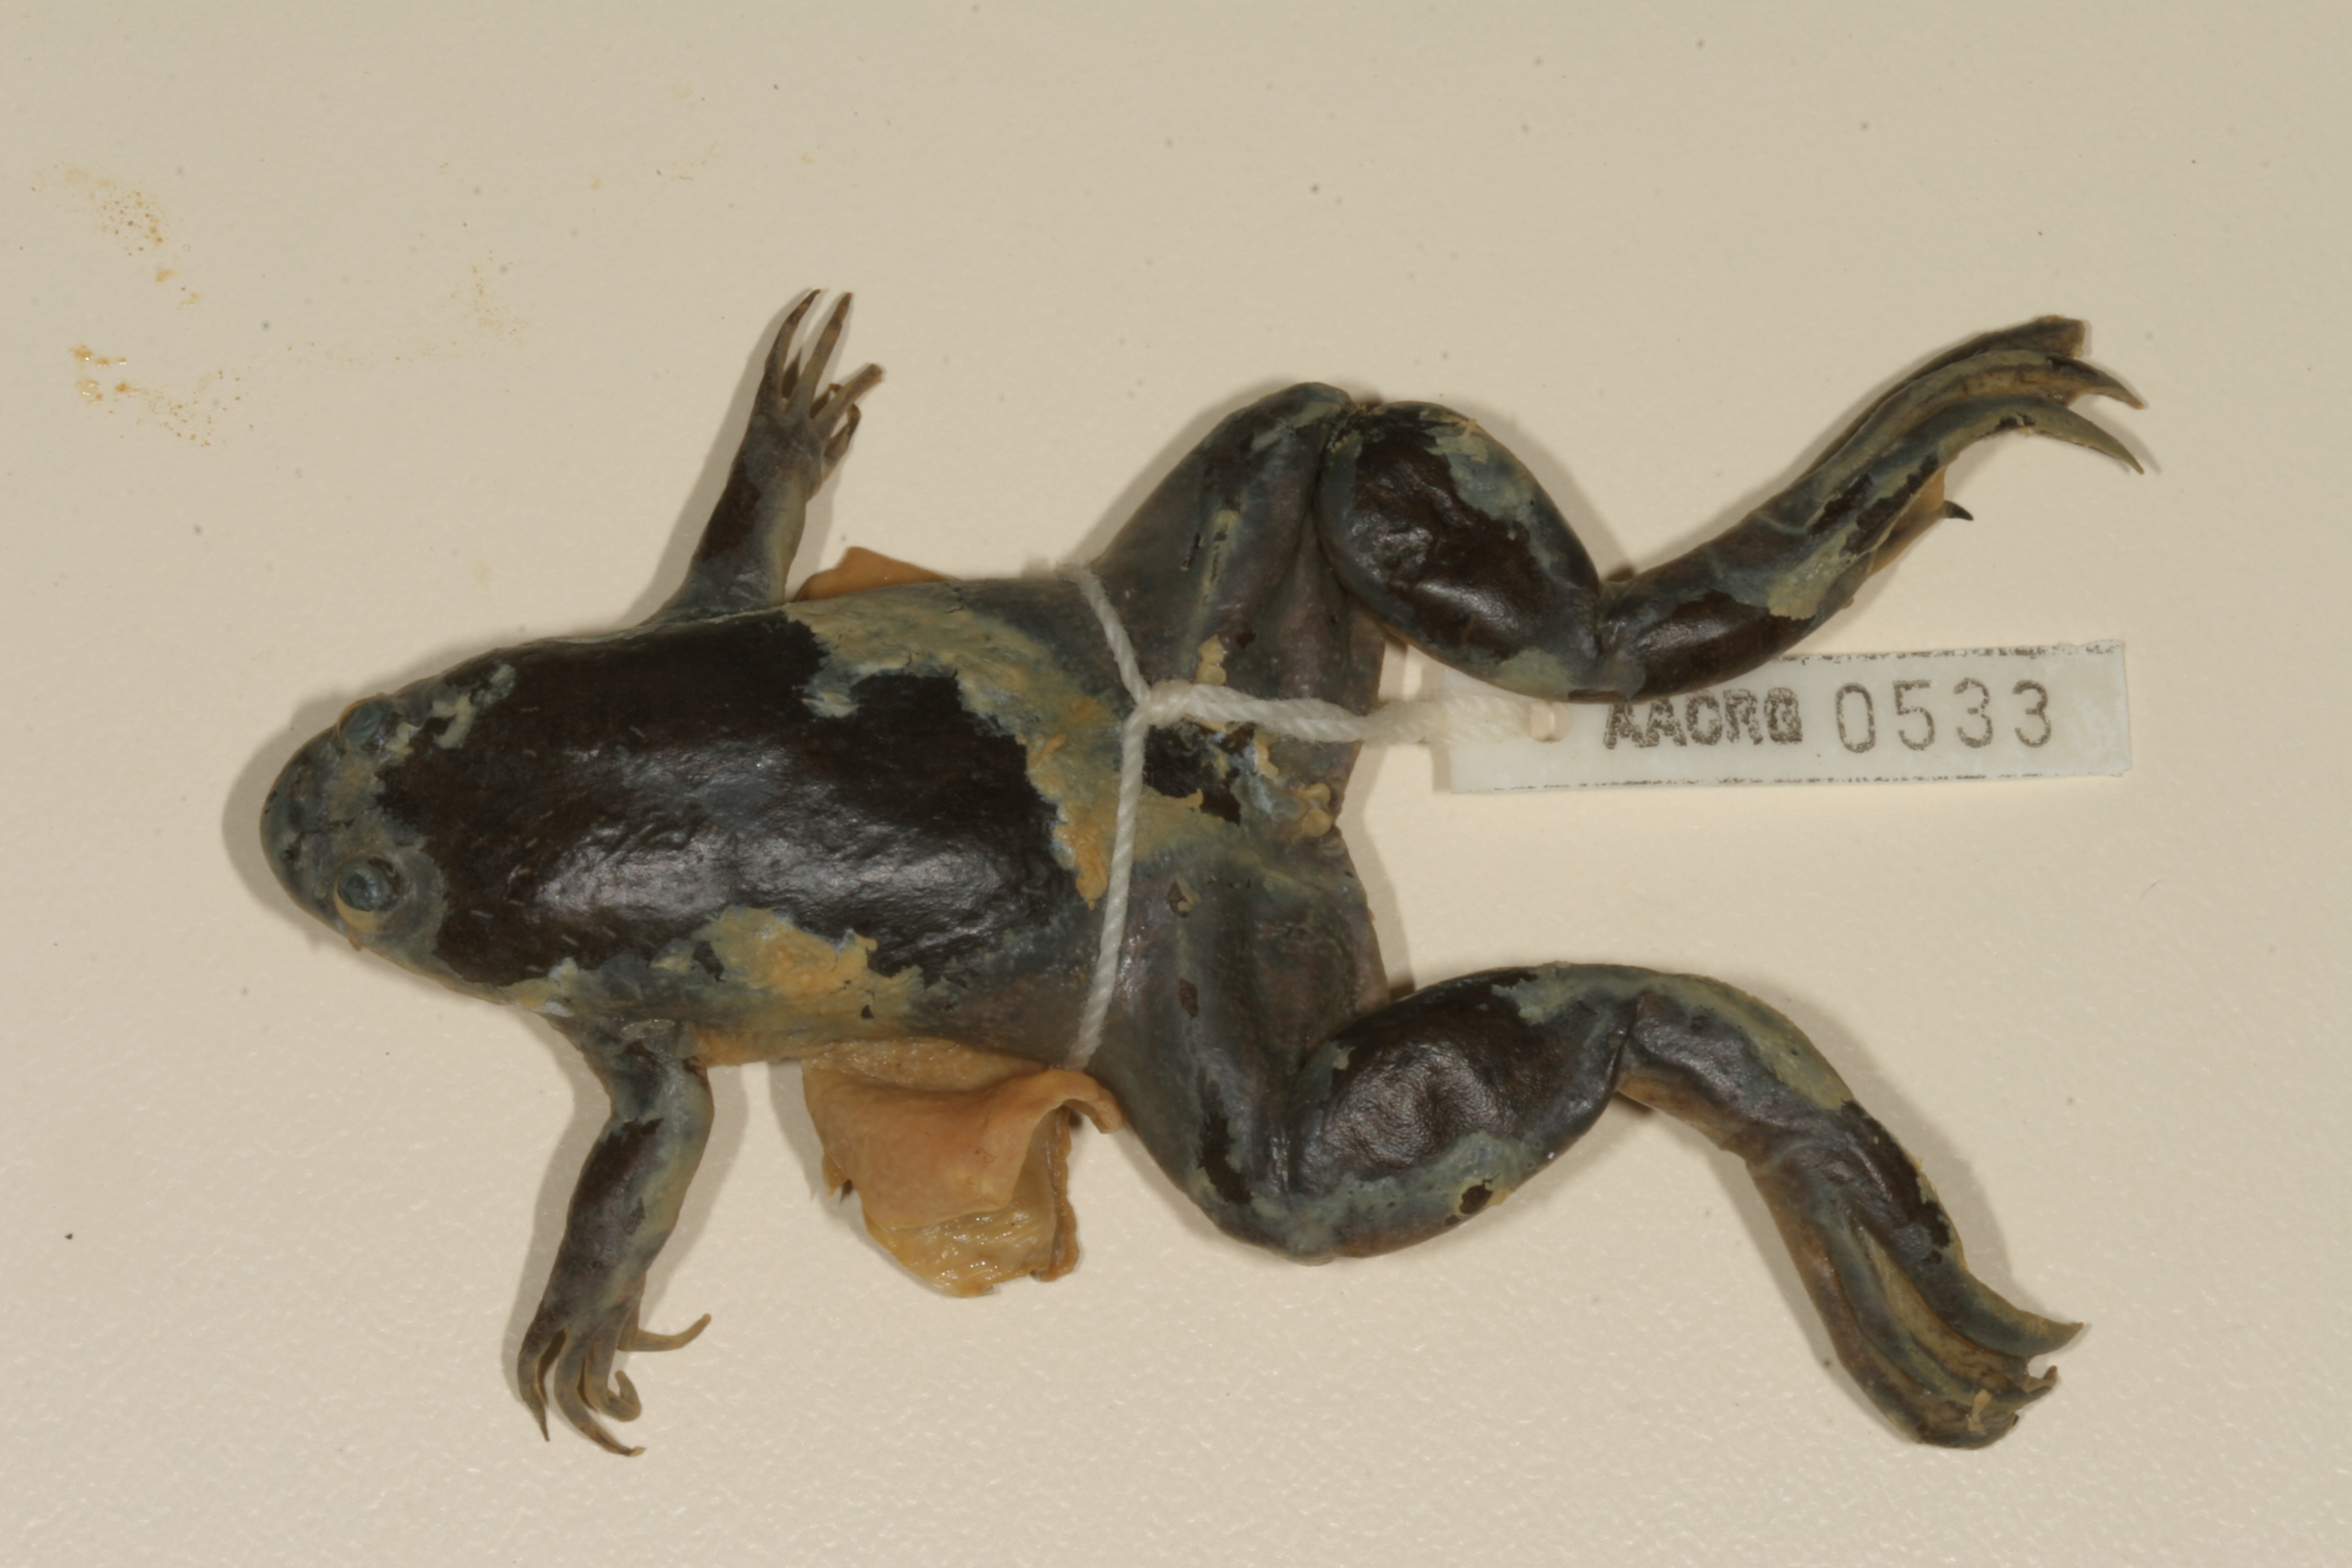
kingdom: Animalia
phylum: Chordata
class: Amphibia
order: Anura
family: Pipidae
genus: Xenopus
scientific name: Xenopus muelleri
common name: Muller's clawed frog
